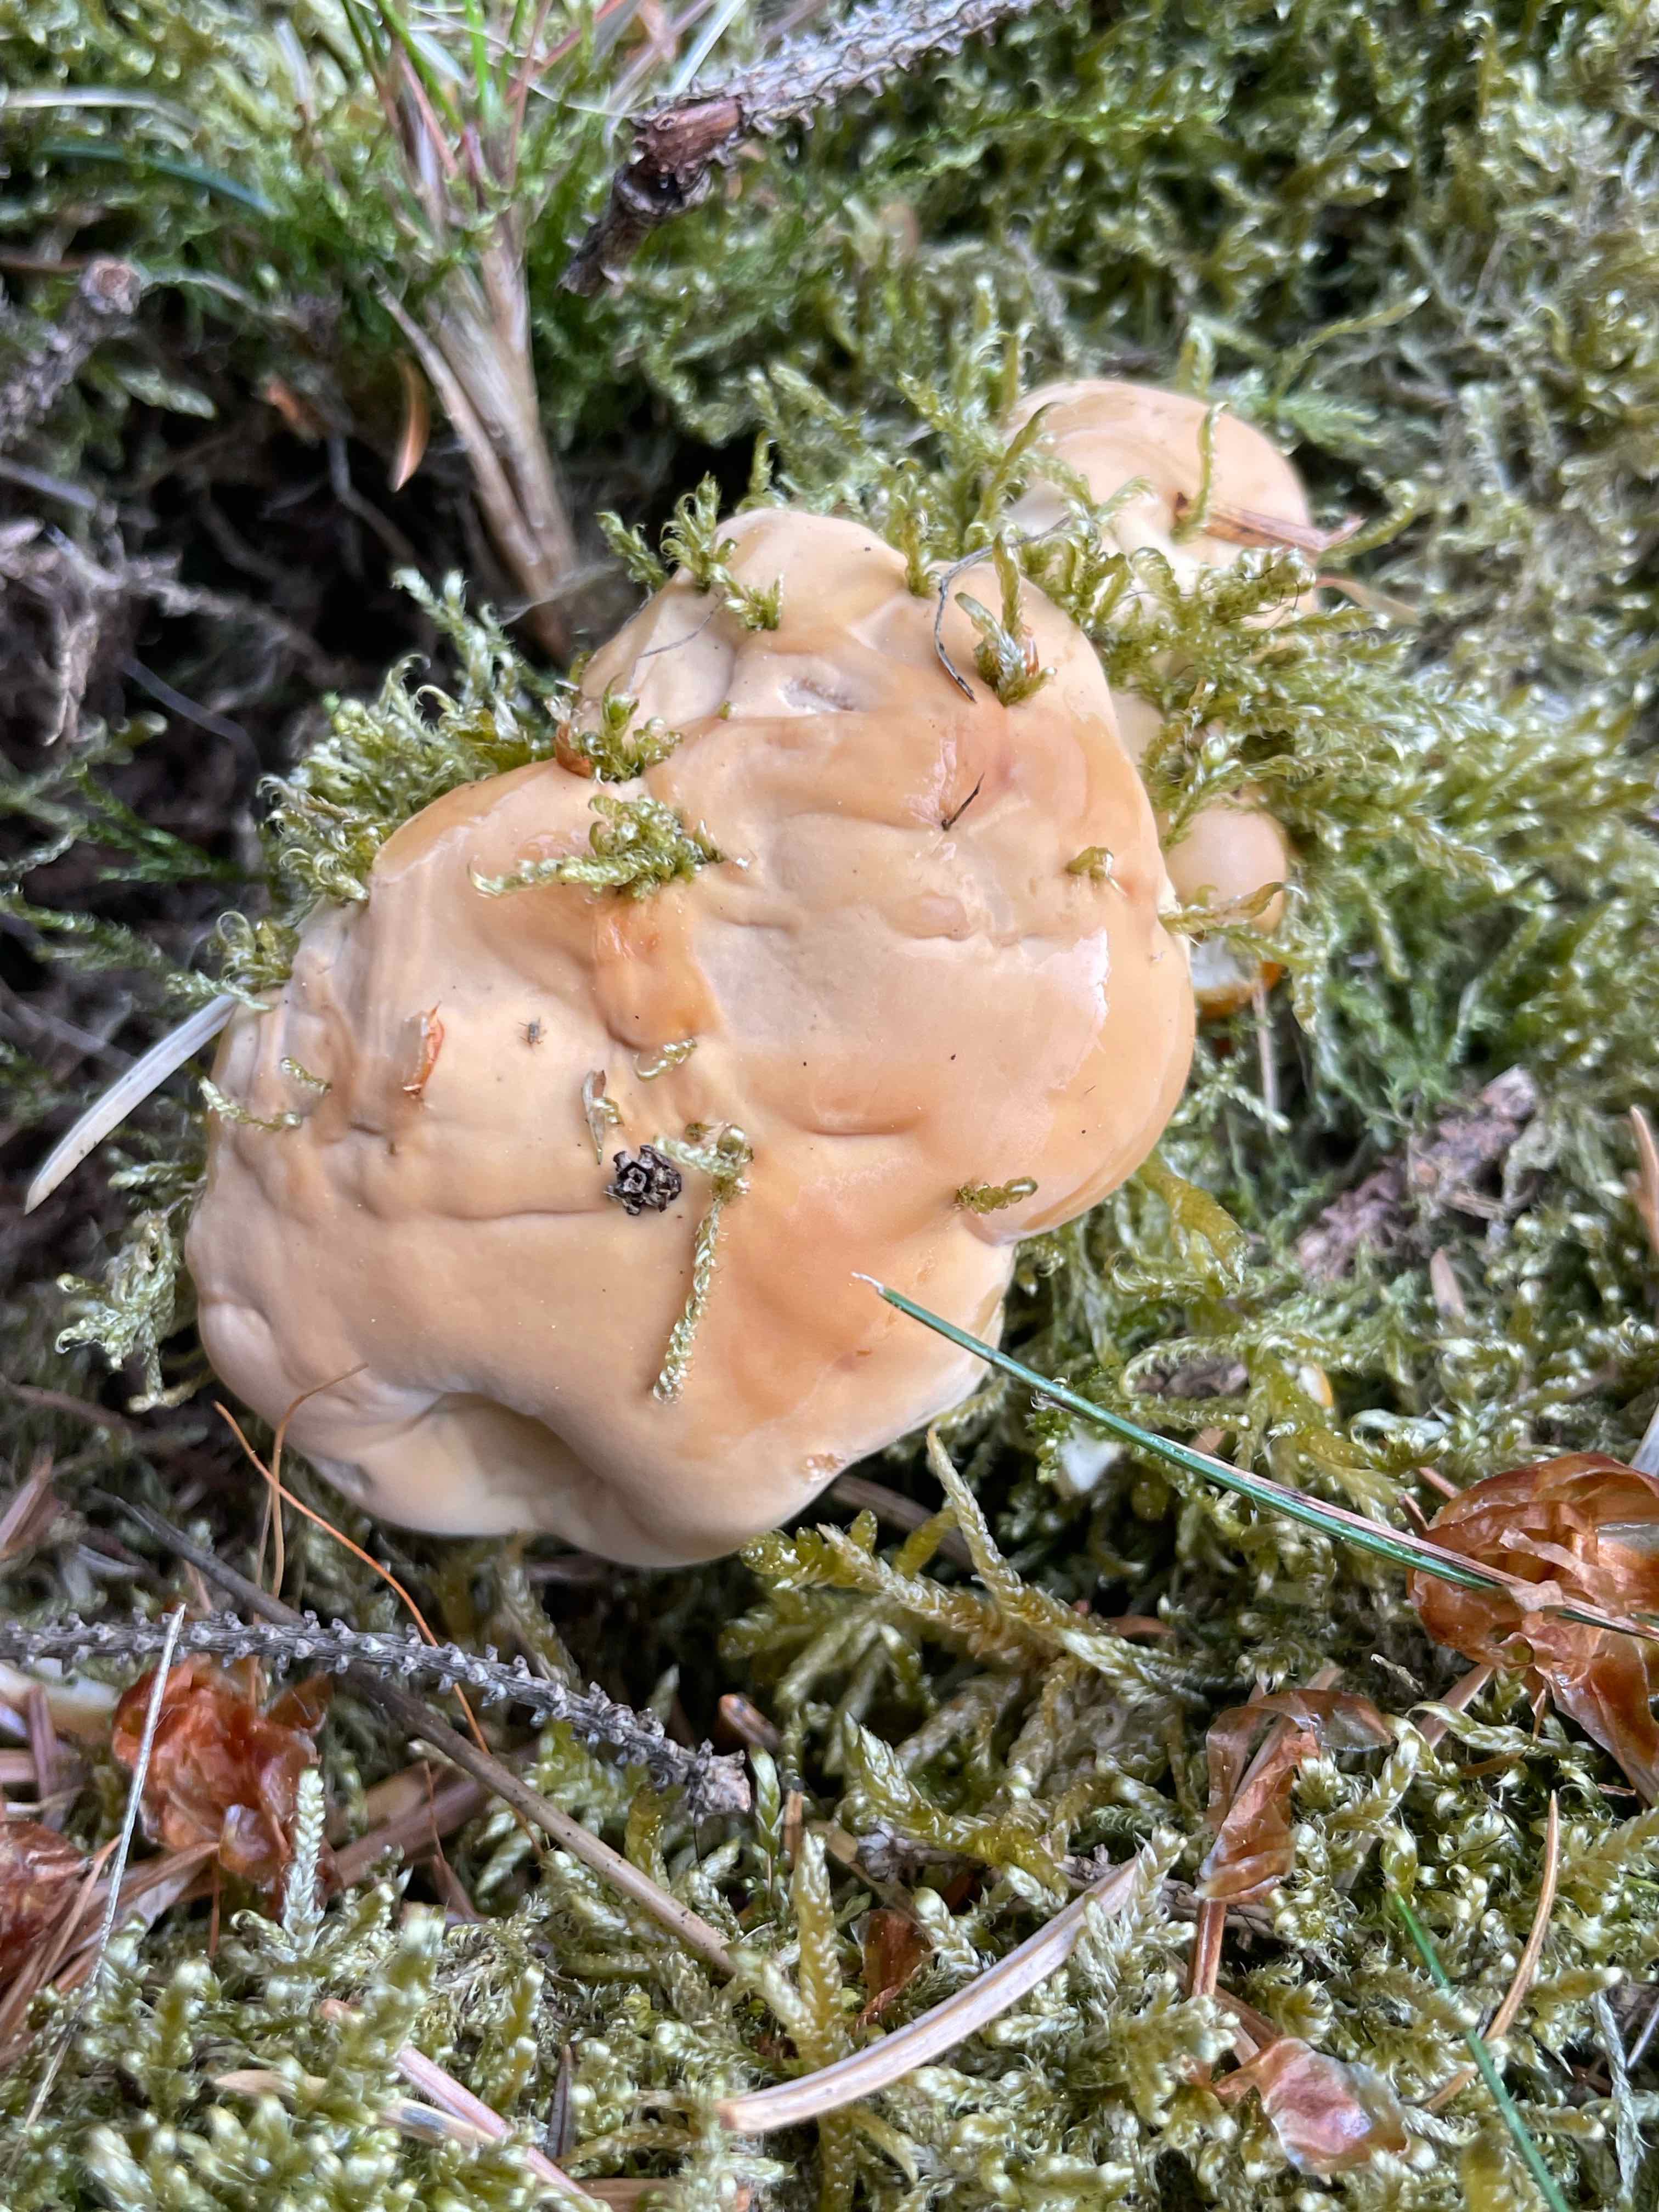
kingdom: Fungi
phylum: Basidiomycota
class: Agaricomycetes
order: Polyporales
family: Polyporaceae
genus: Ganoderma
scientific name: Ganoderma lucidum
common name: skinnende lakporesvamp
